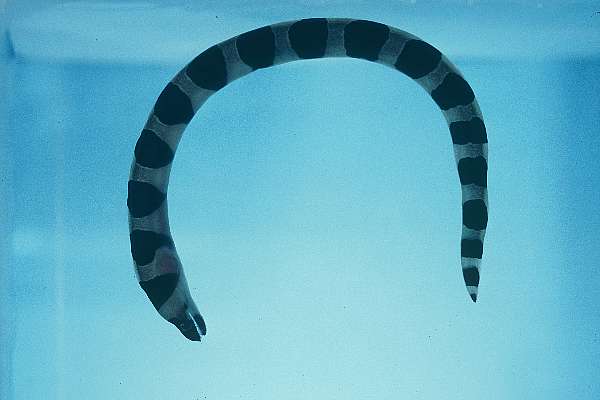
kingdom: Animalia
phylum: Chordata
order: Anguilliformes
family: Muraenidae
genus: Gymnothorax
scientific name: Gymnothorax rueppelliae
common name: Banded moray
